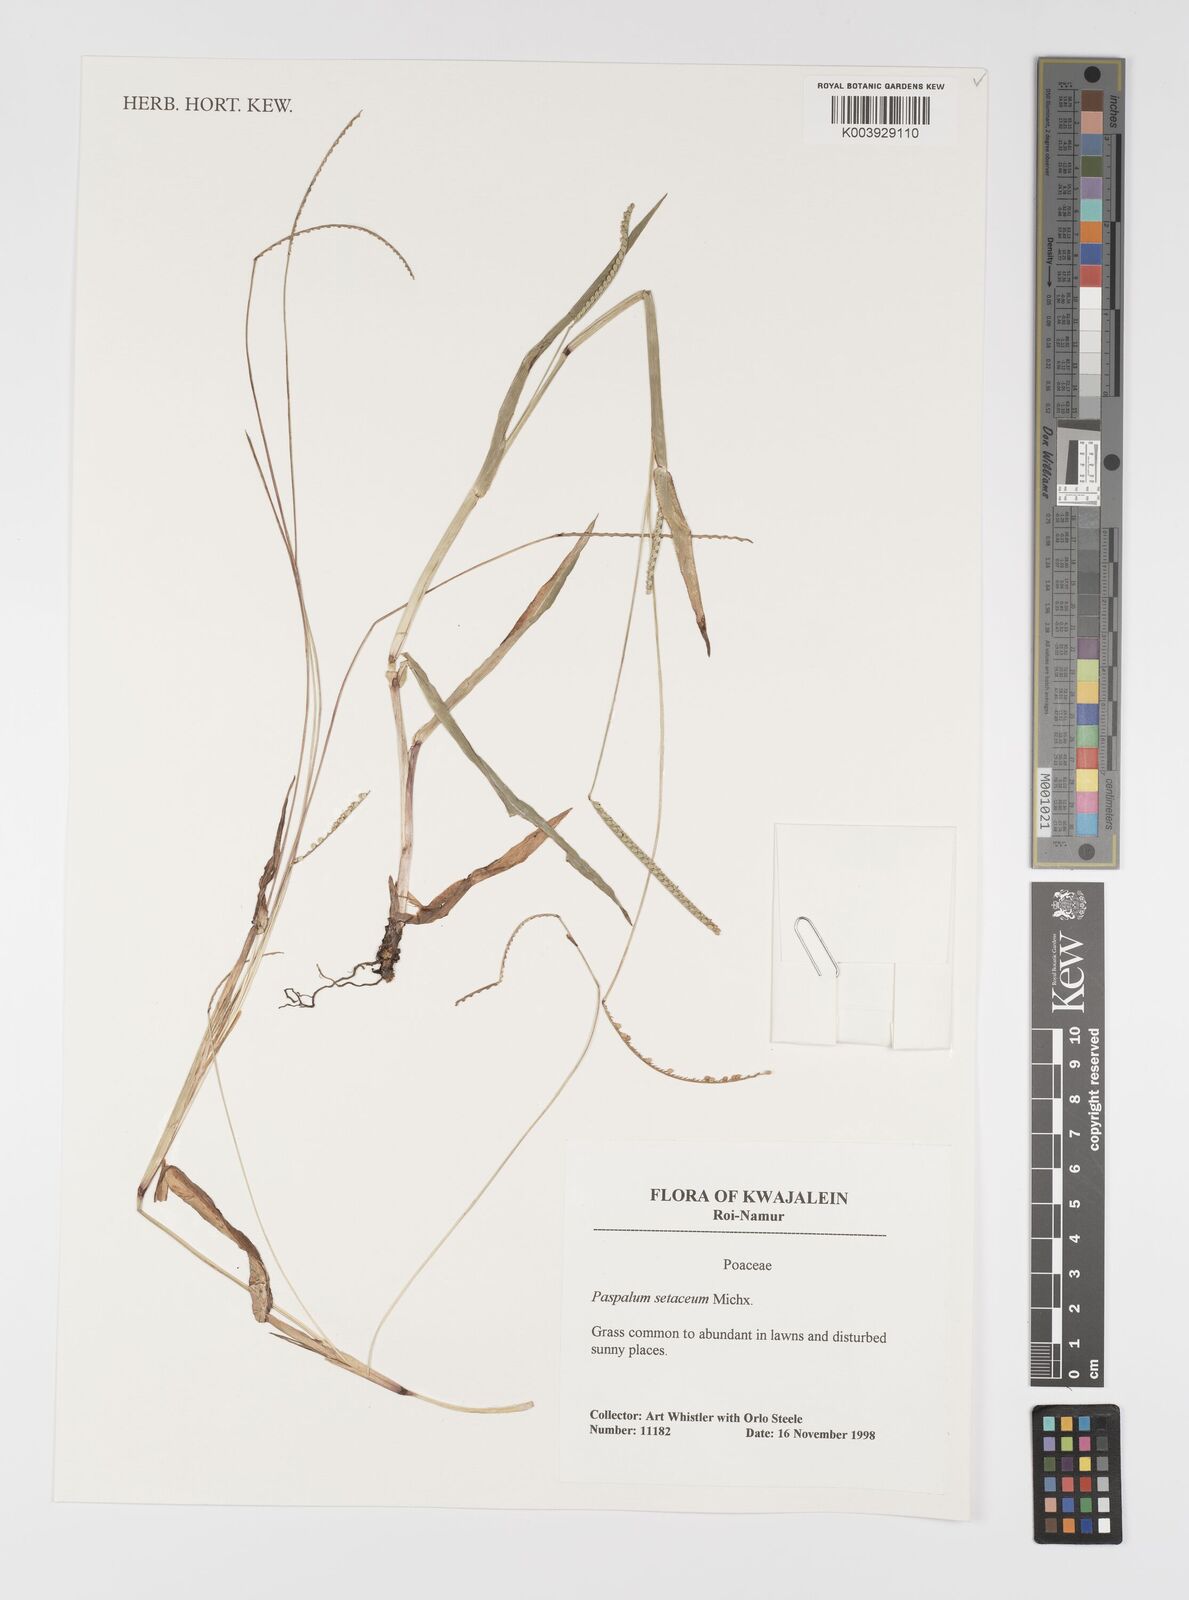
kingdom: Plantae
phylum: Tracheophyta
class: Liliopsida
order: Poales
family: Poaceae
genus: Paspalum
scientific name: Paspalum setaceum
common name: Slender paspalum
